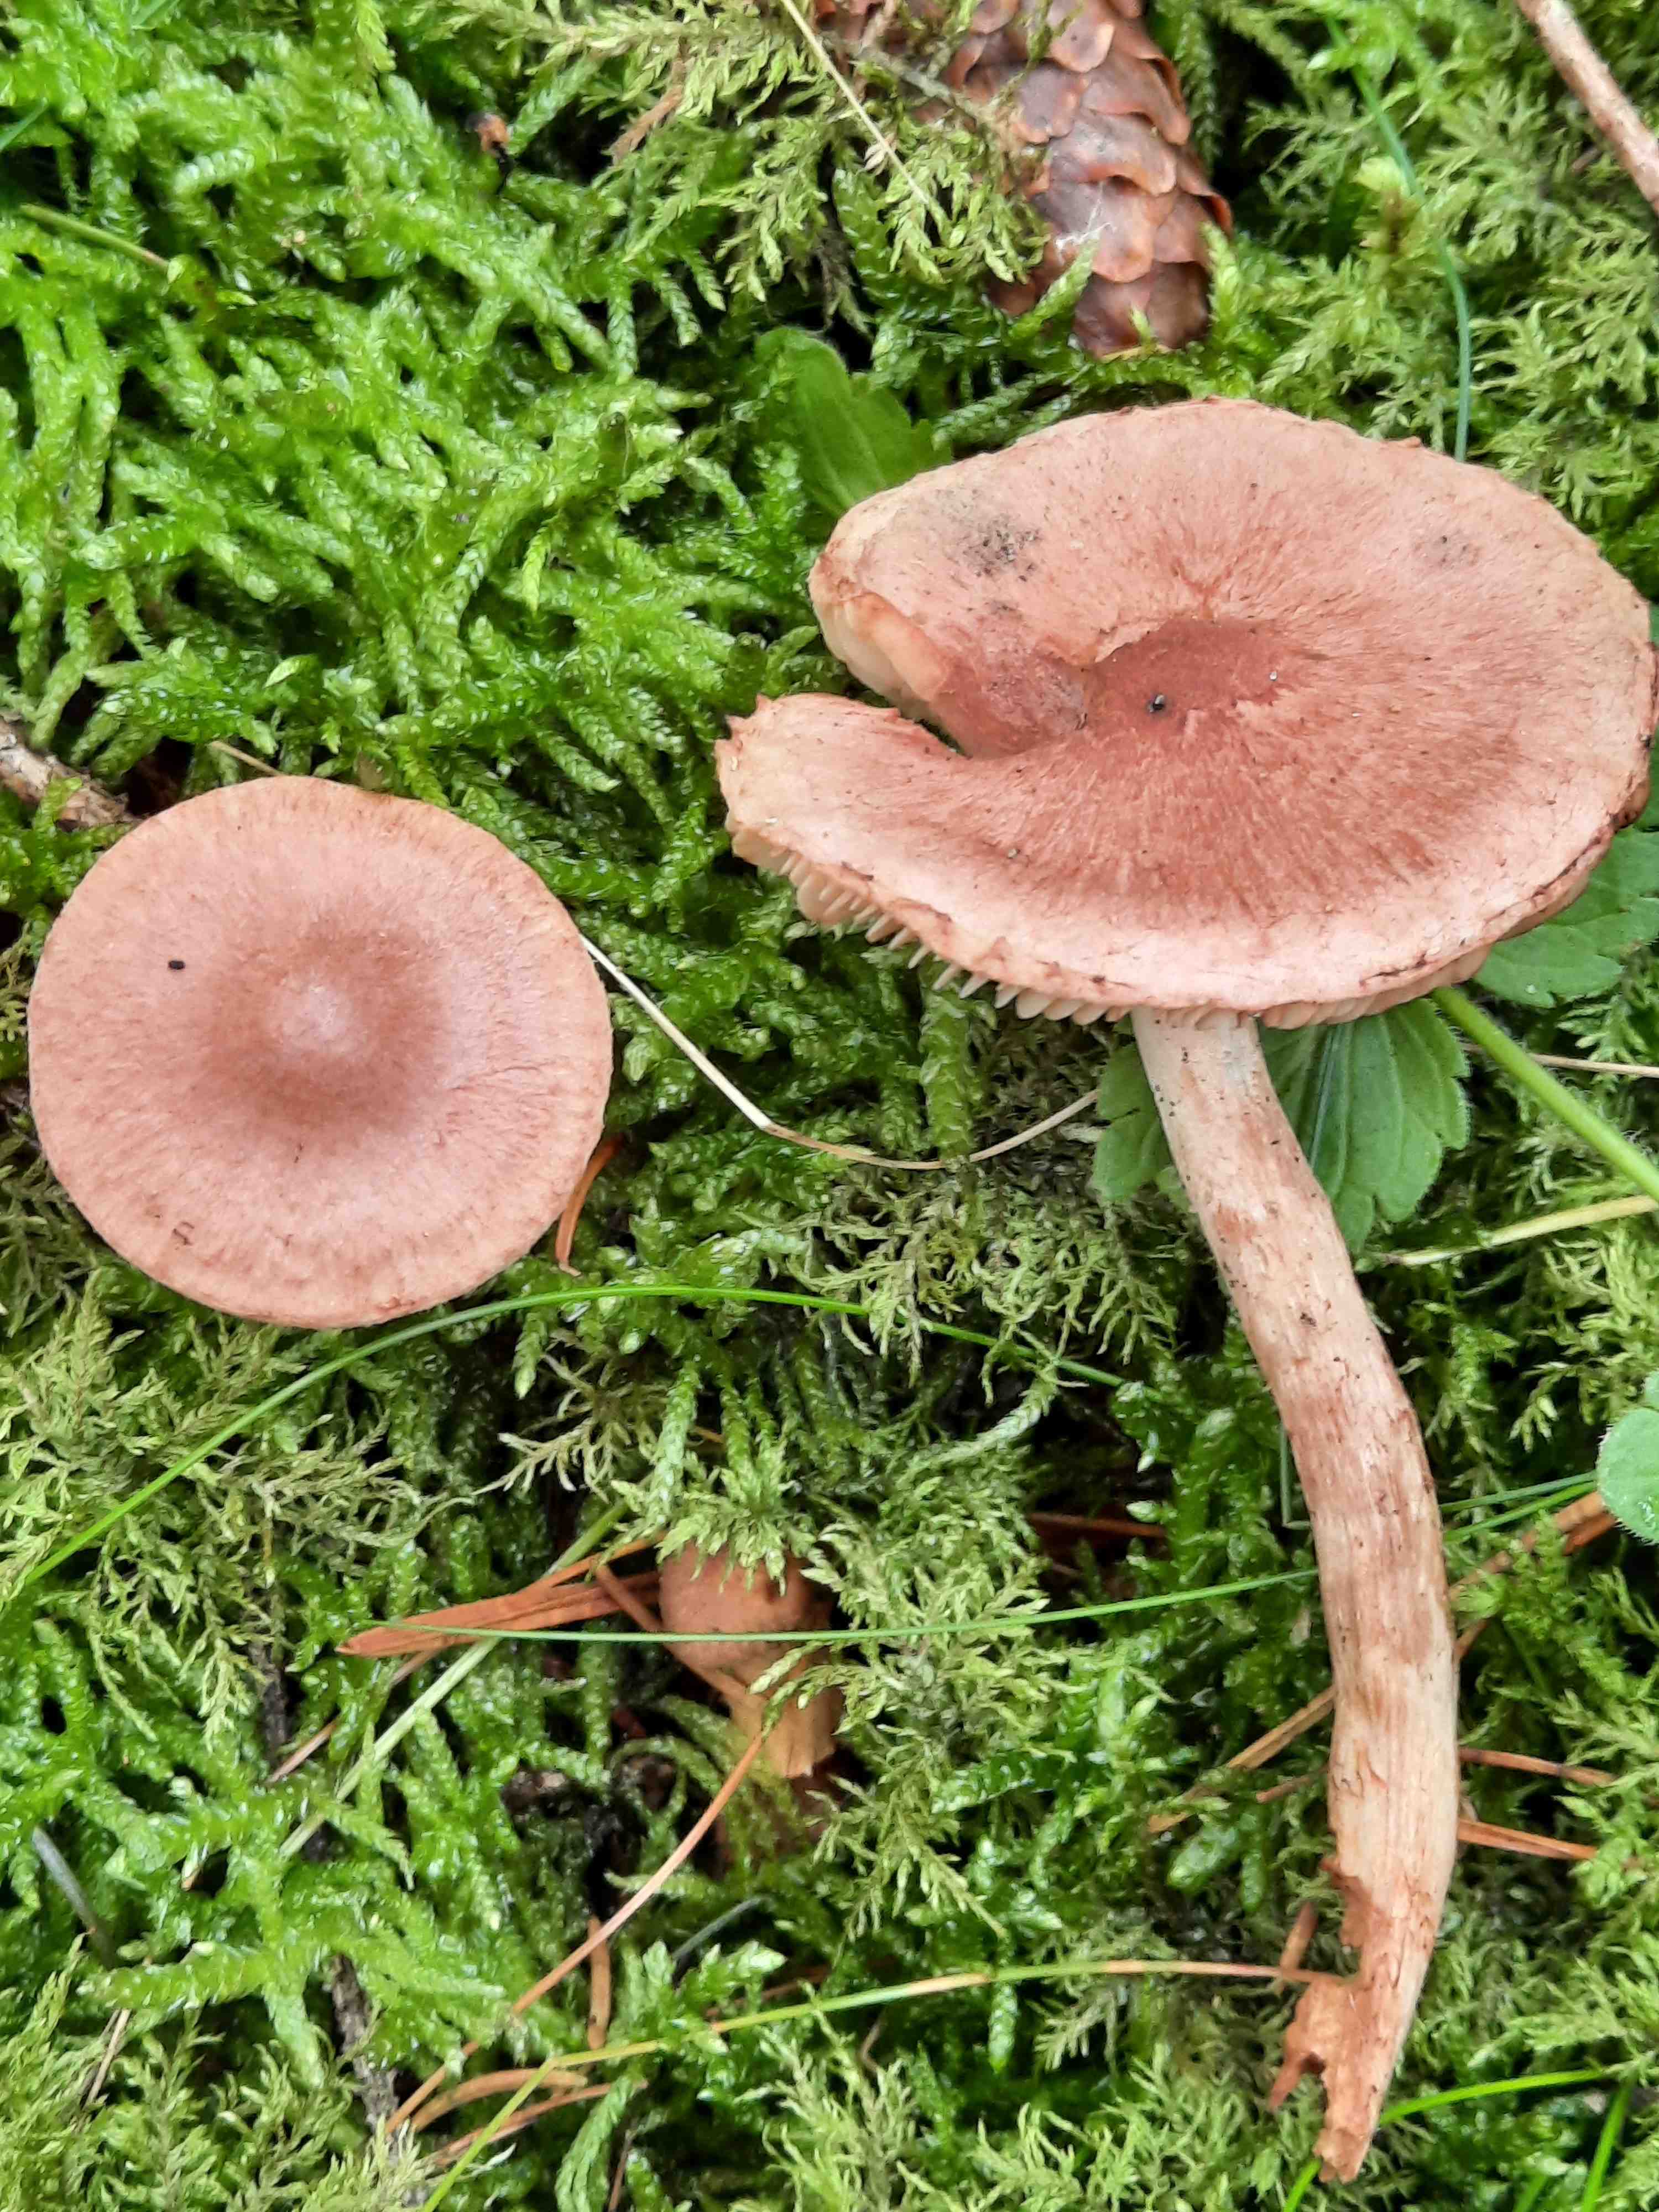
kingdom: Fungi
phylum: Basidiomycota
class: Agaricomycetes
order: Agaricales
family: Tricholomataceae
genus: Tricholoma
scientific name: Tricholoma vaccinum
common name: ko-ridderhat
